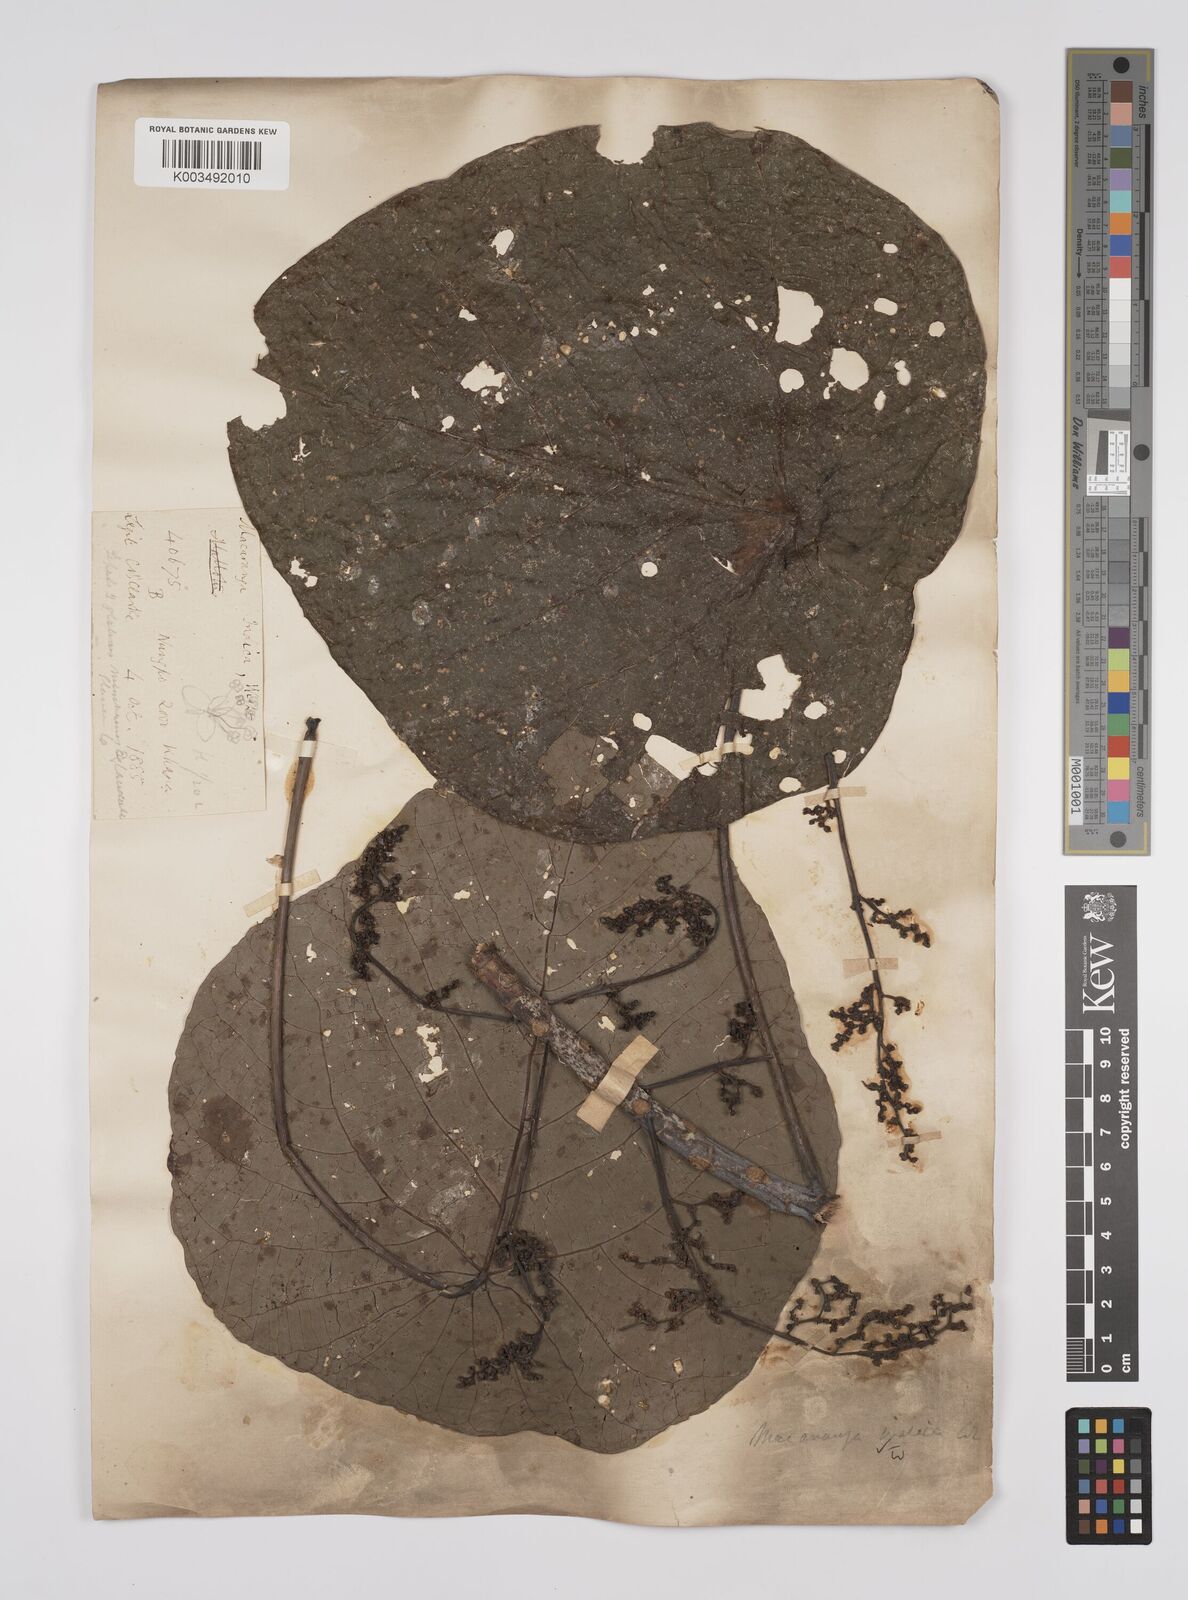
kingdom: Plantae
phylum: Tracheophyta
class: Magnoliopsida
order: Malpighiales
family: Euphorbiaceae
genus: Macaranga
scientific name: Macaranga indica
